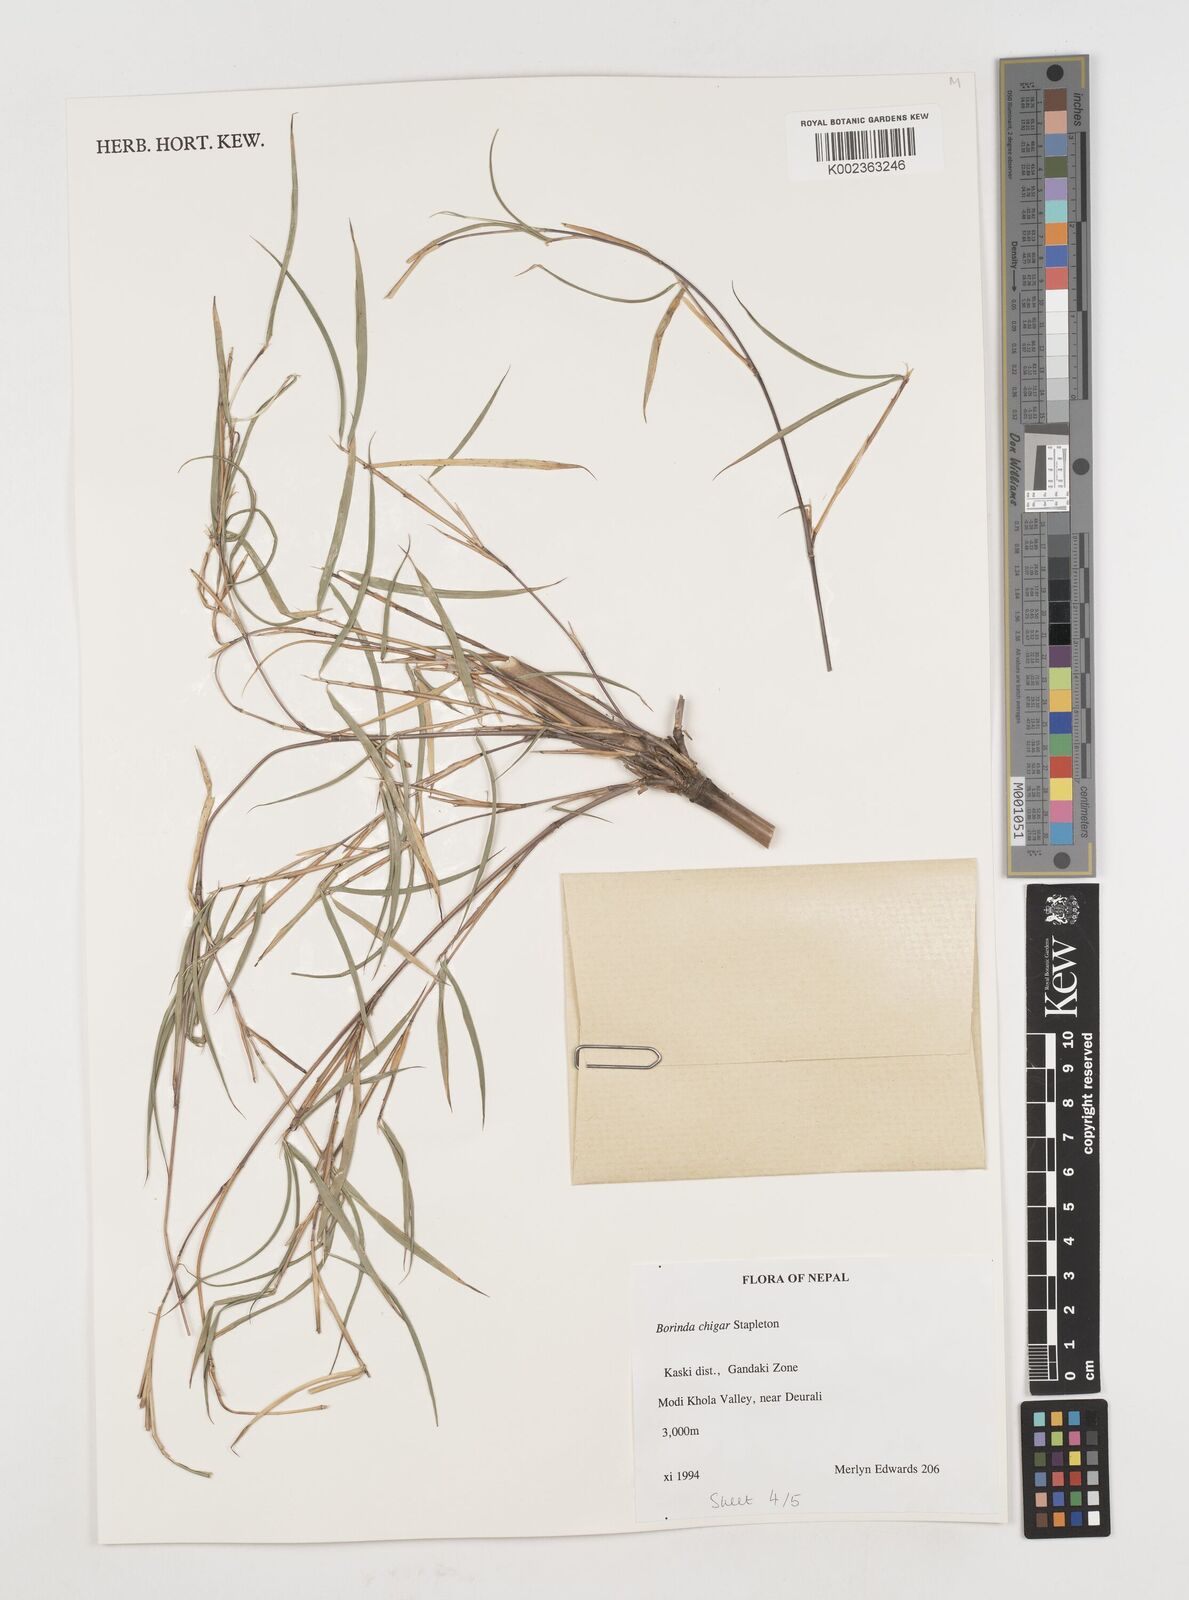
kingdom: Plantae
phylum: Tracheophyta
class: Liliopsida
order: Poales
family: Poaceae
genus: Fargesia
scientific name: Fargesia
